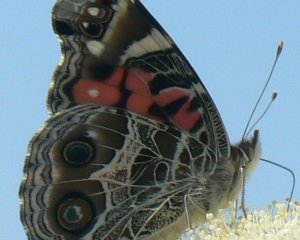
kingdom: Animalia
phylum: Arthropoda
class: Insecta
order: Lepidoptera
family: Nymphalidae
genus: Vanessa
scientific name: Vanessa virginiensis
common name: American Lady
